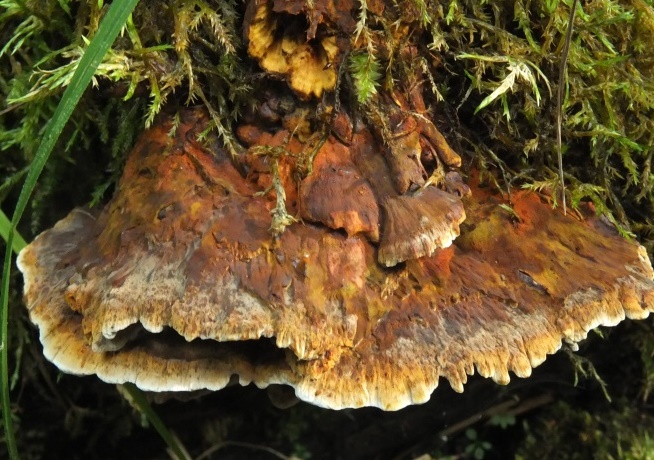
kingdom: Fungi
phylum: Basidiomycota
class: Agaricomycetes
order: Hymenochaetales
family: Hymenochaetaceae
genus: Xanthoporia
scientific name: Xanthoporia radiata
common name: elle-spejlporesvamp
